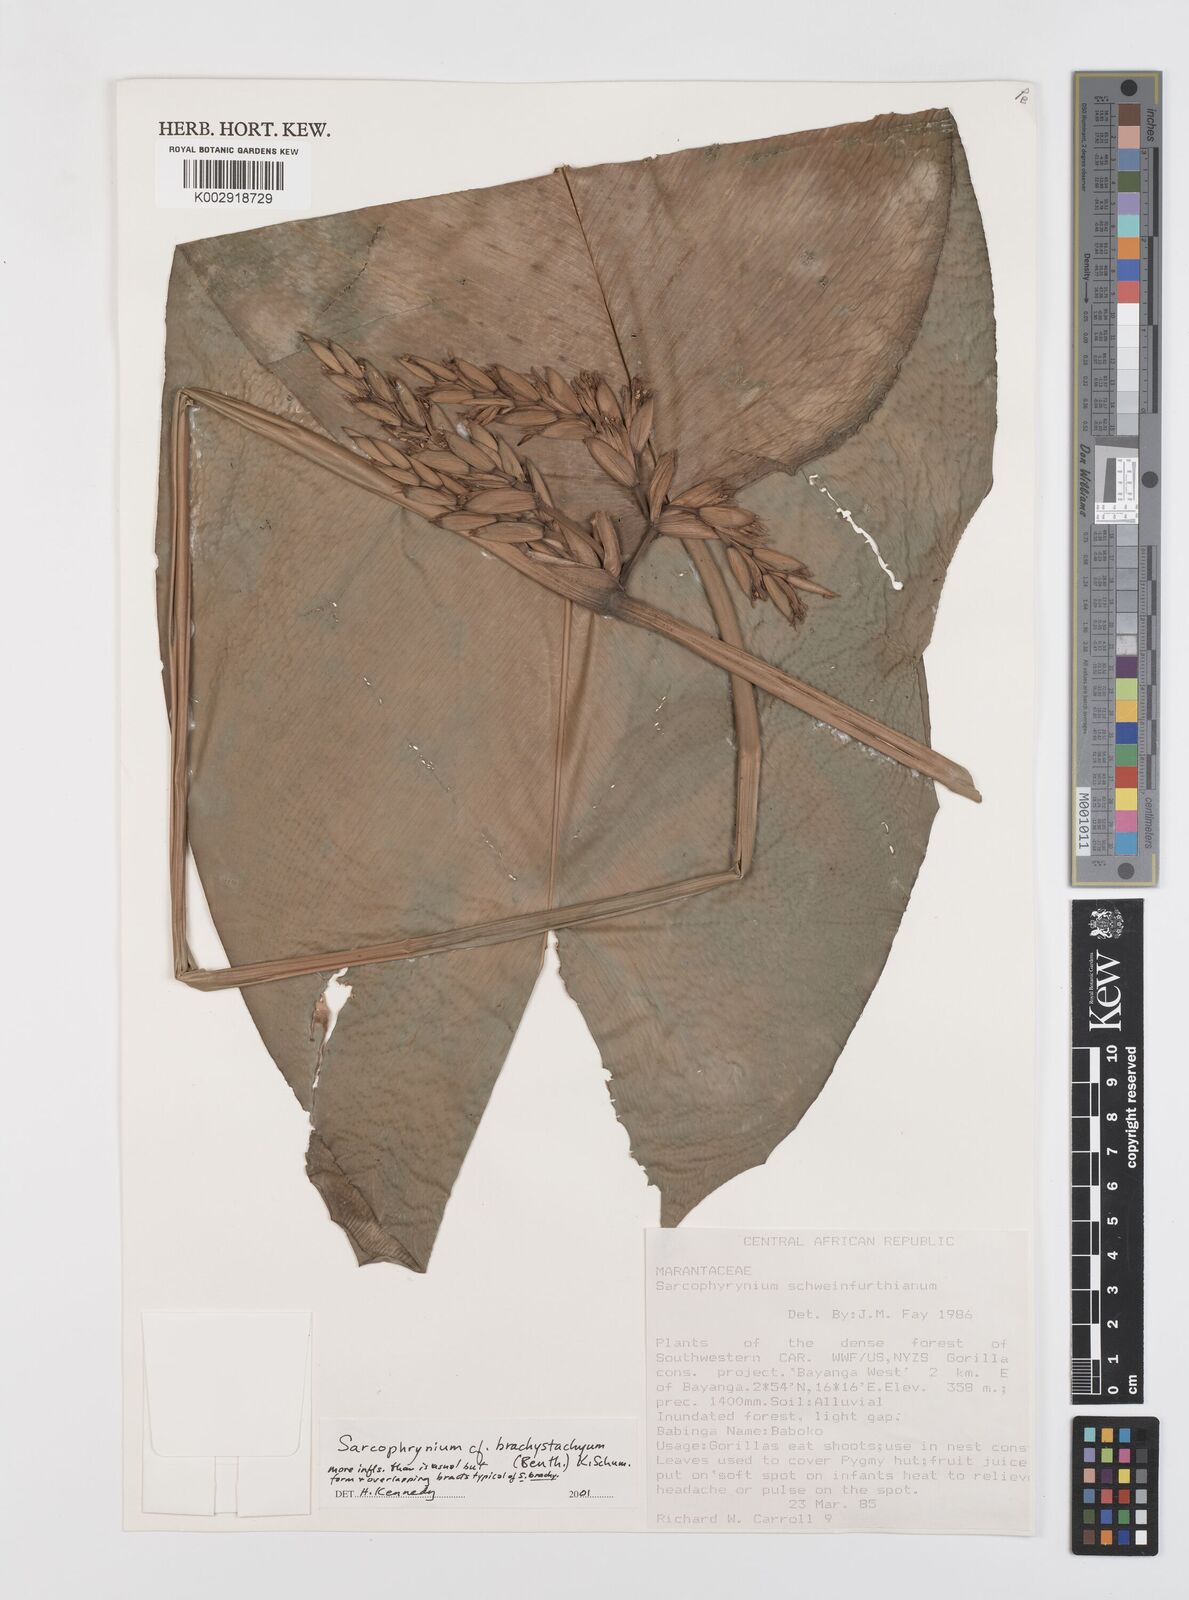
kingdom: Plantae
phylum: Tracheophyta
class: Liliopsida
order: Zingiberales
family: Marantaceae
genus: Sarcophrynium
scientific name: Sarcophrynium brachystachyum
